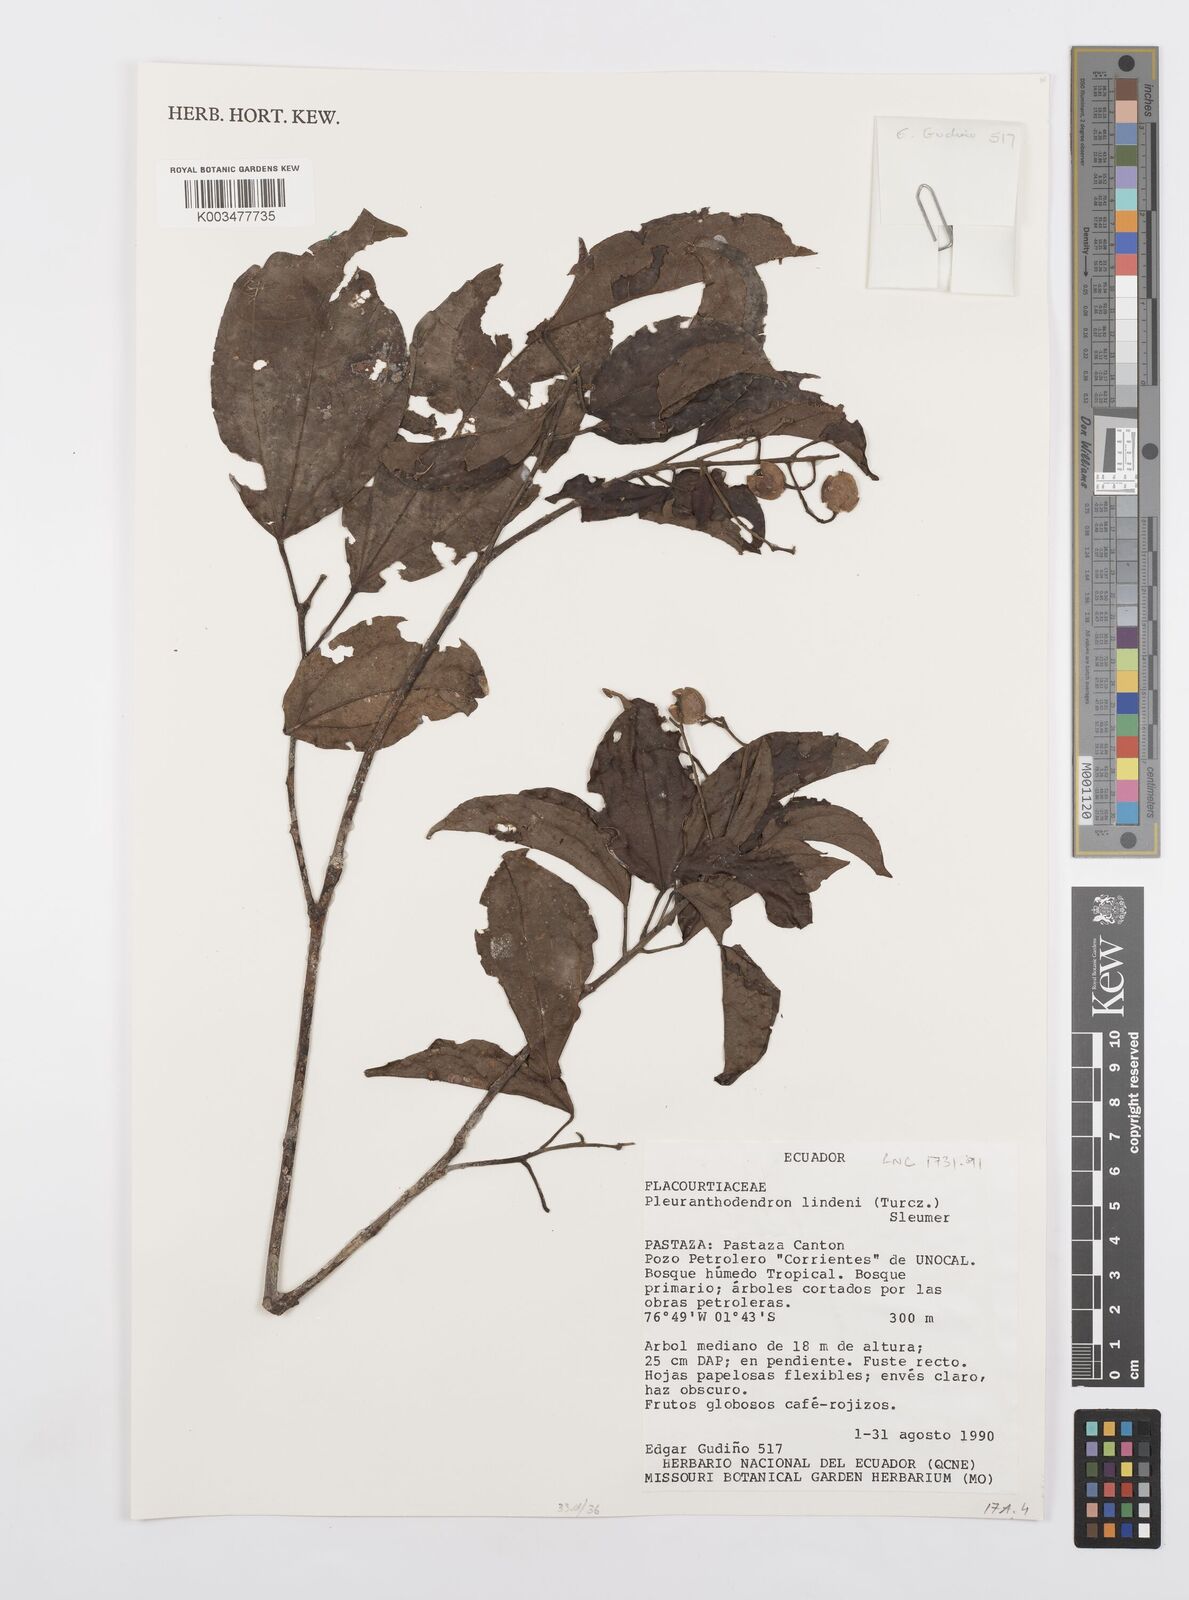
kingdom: Plantae
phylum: Tracheophyta
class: Magnoliopsida
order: Malpighiales
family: Salicaceae
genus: Pleuranthodendron
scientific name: Pleuranthodendron lindenii
